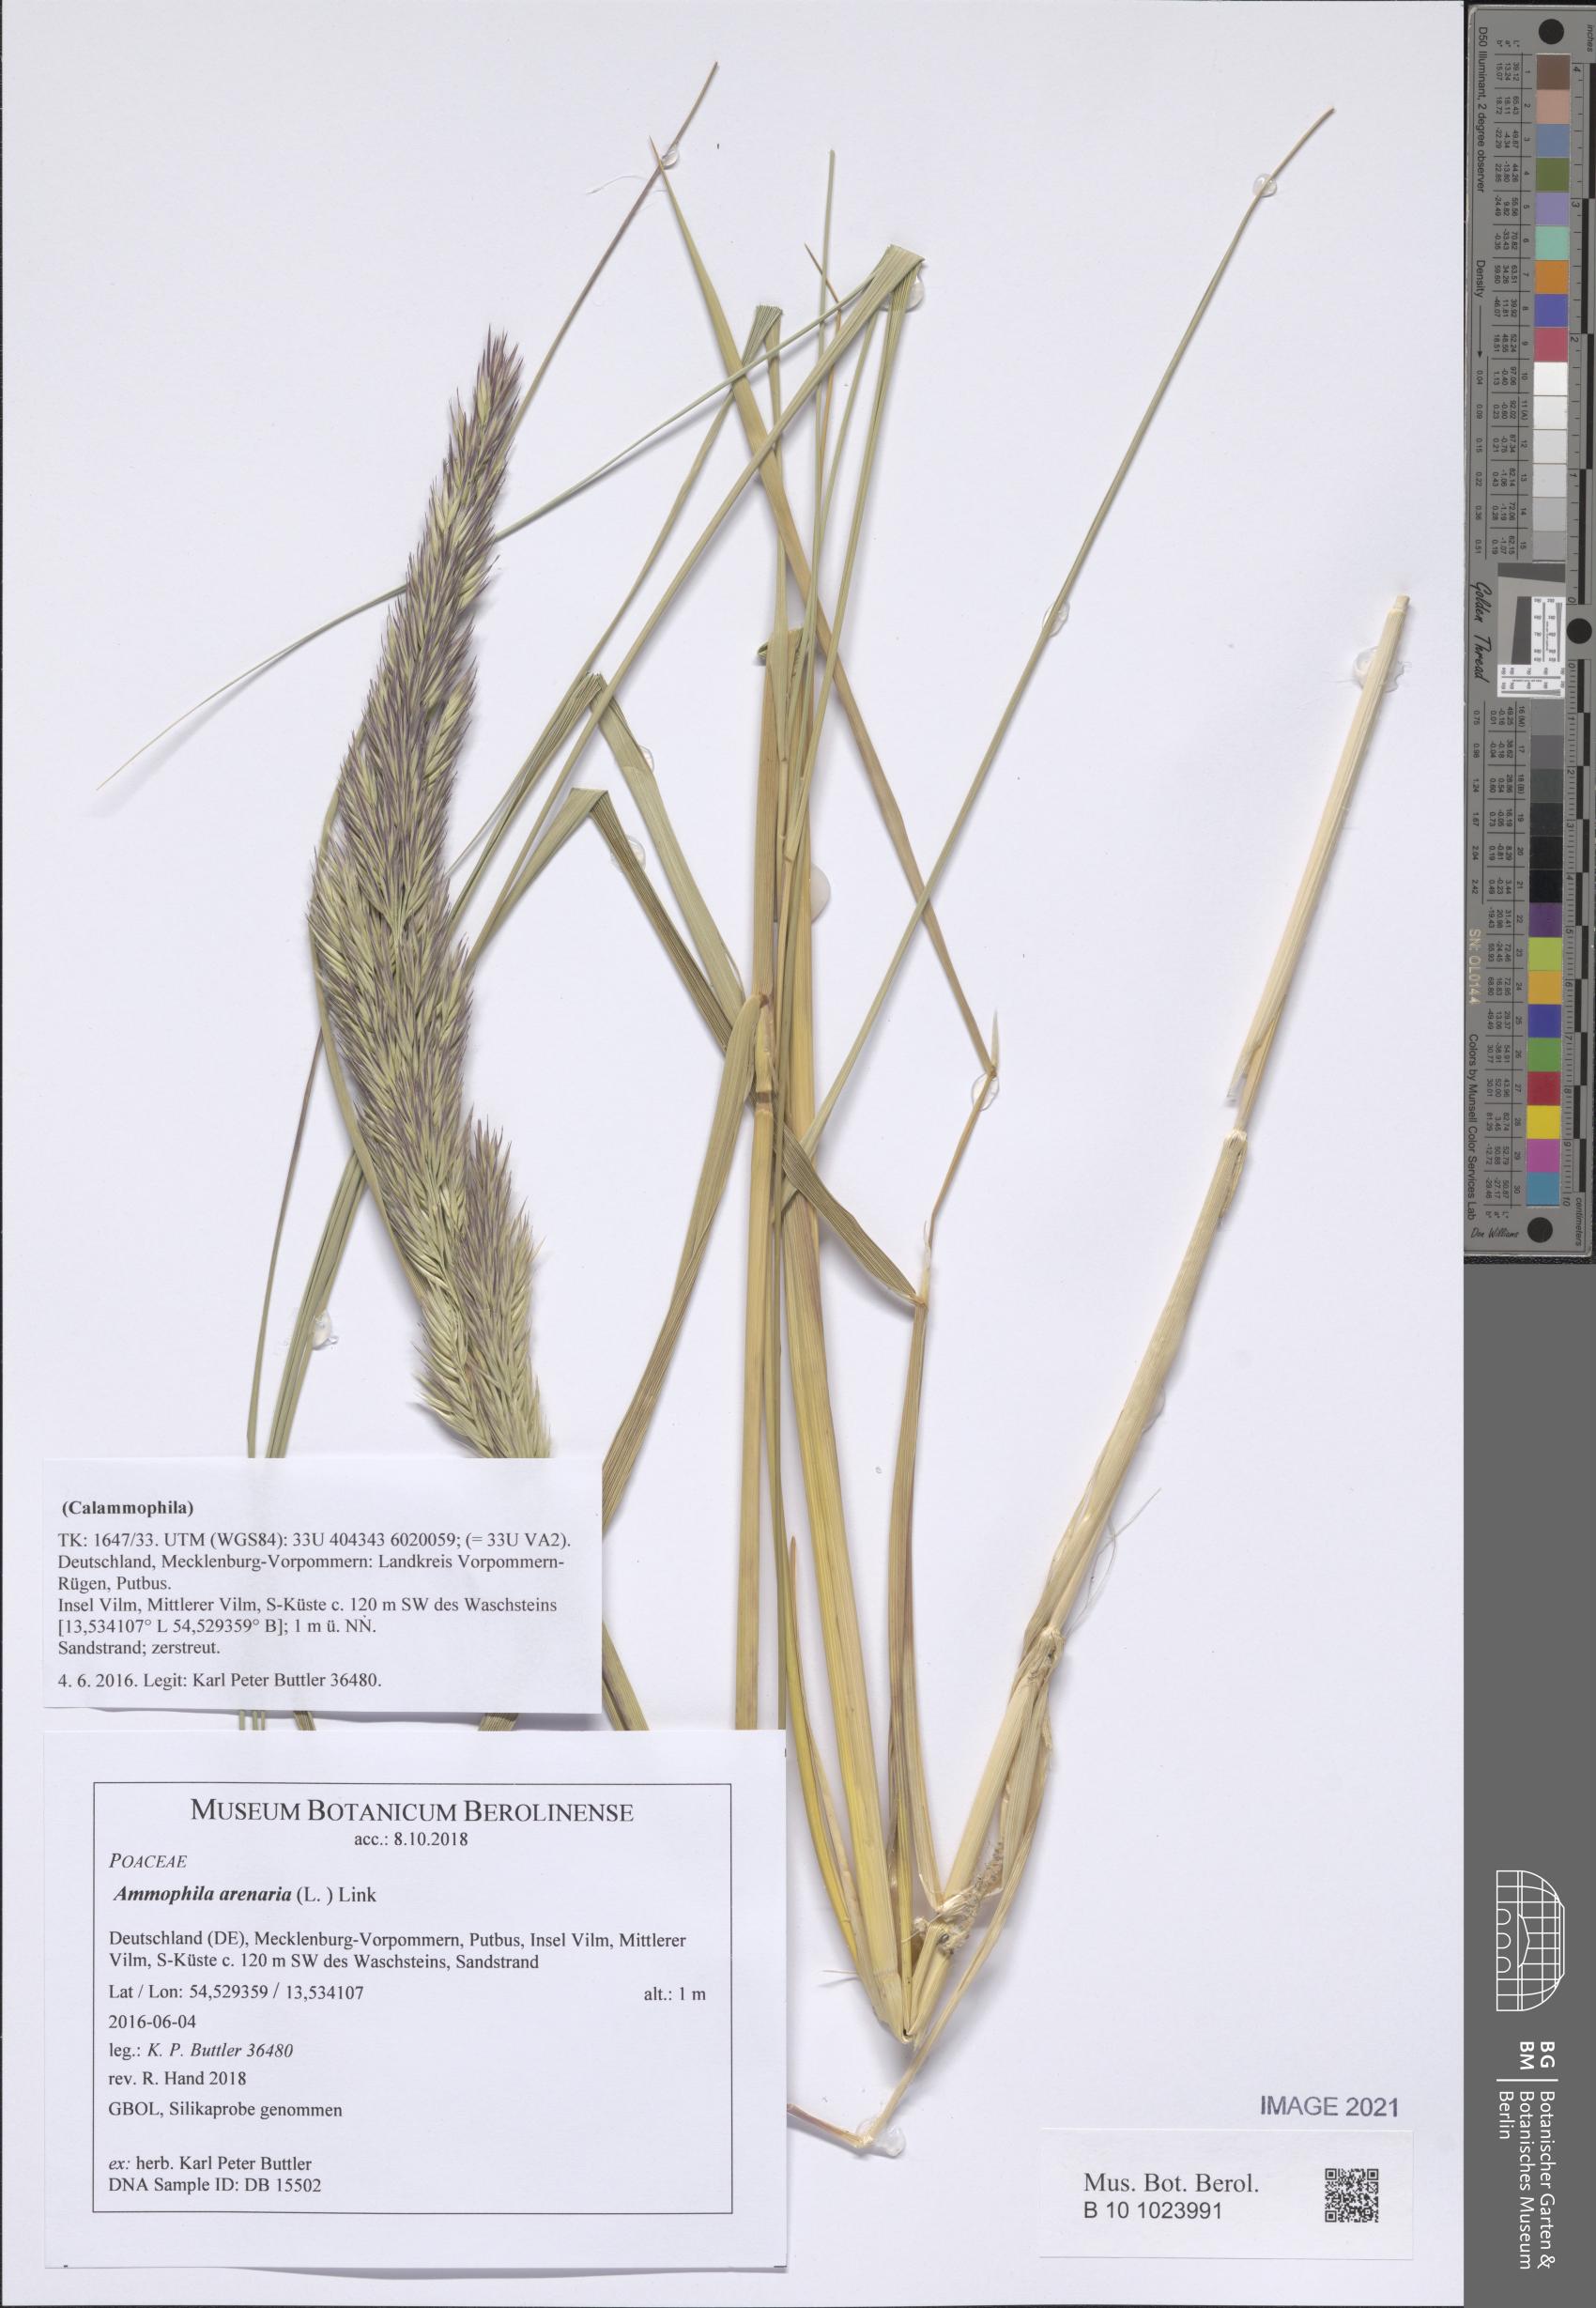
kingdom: Plantae
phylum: Tracheophyta
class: Liliopsida
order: Poales
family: Poaceae
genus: Calamagrostis
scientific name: Calamagrostis arenaria
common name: European beachgrass
